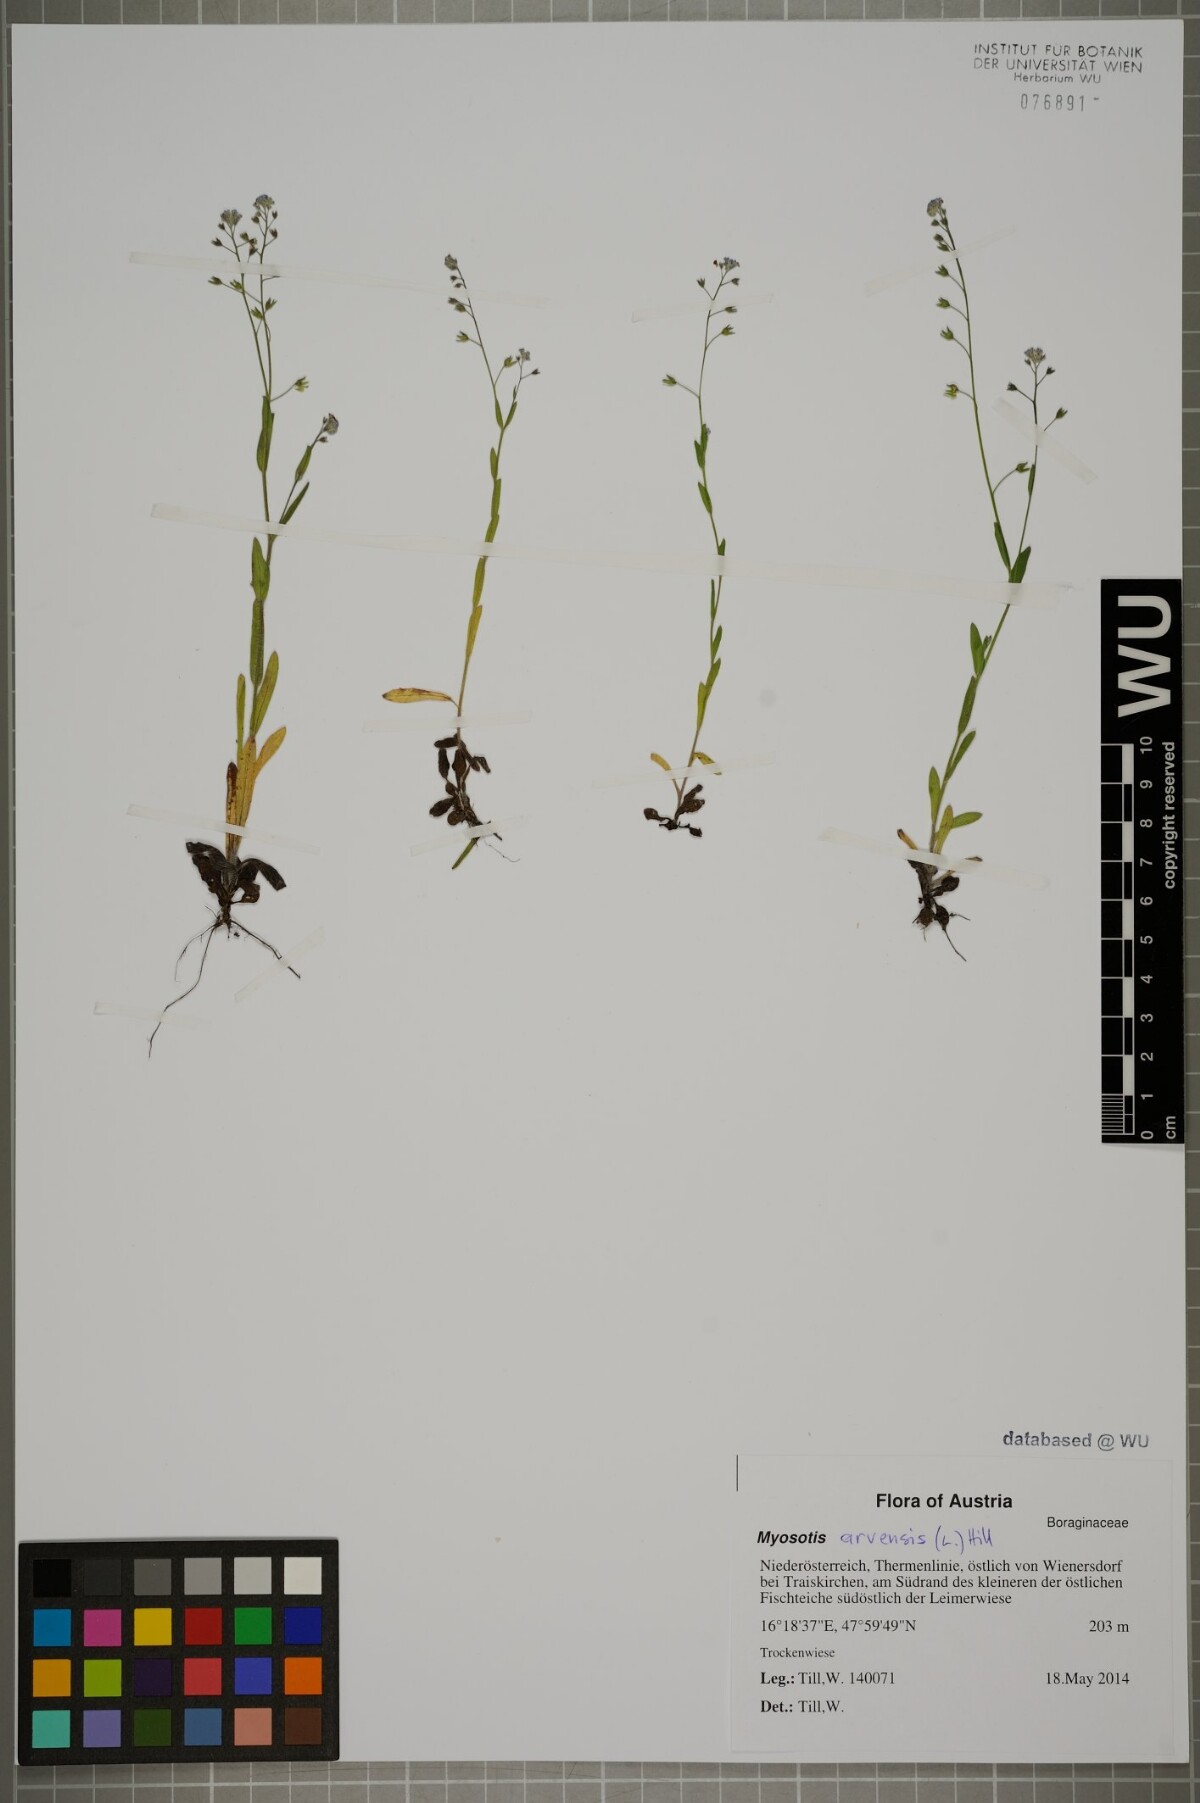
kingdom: Plantae
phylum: Tracheophyta
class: Magnoliopsida
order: Boraginales
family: Boraginaceae
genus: Myosotis
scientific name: Myosotis arvensis
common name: Field forget-me-not
